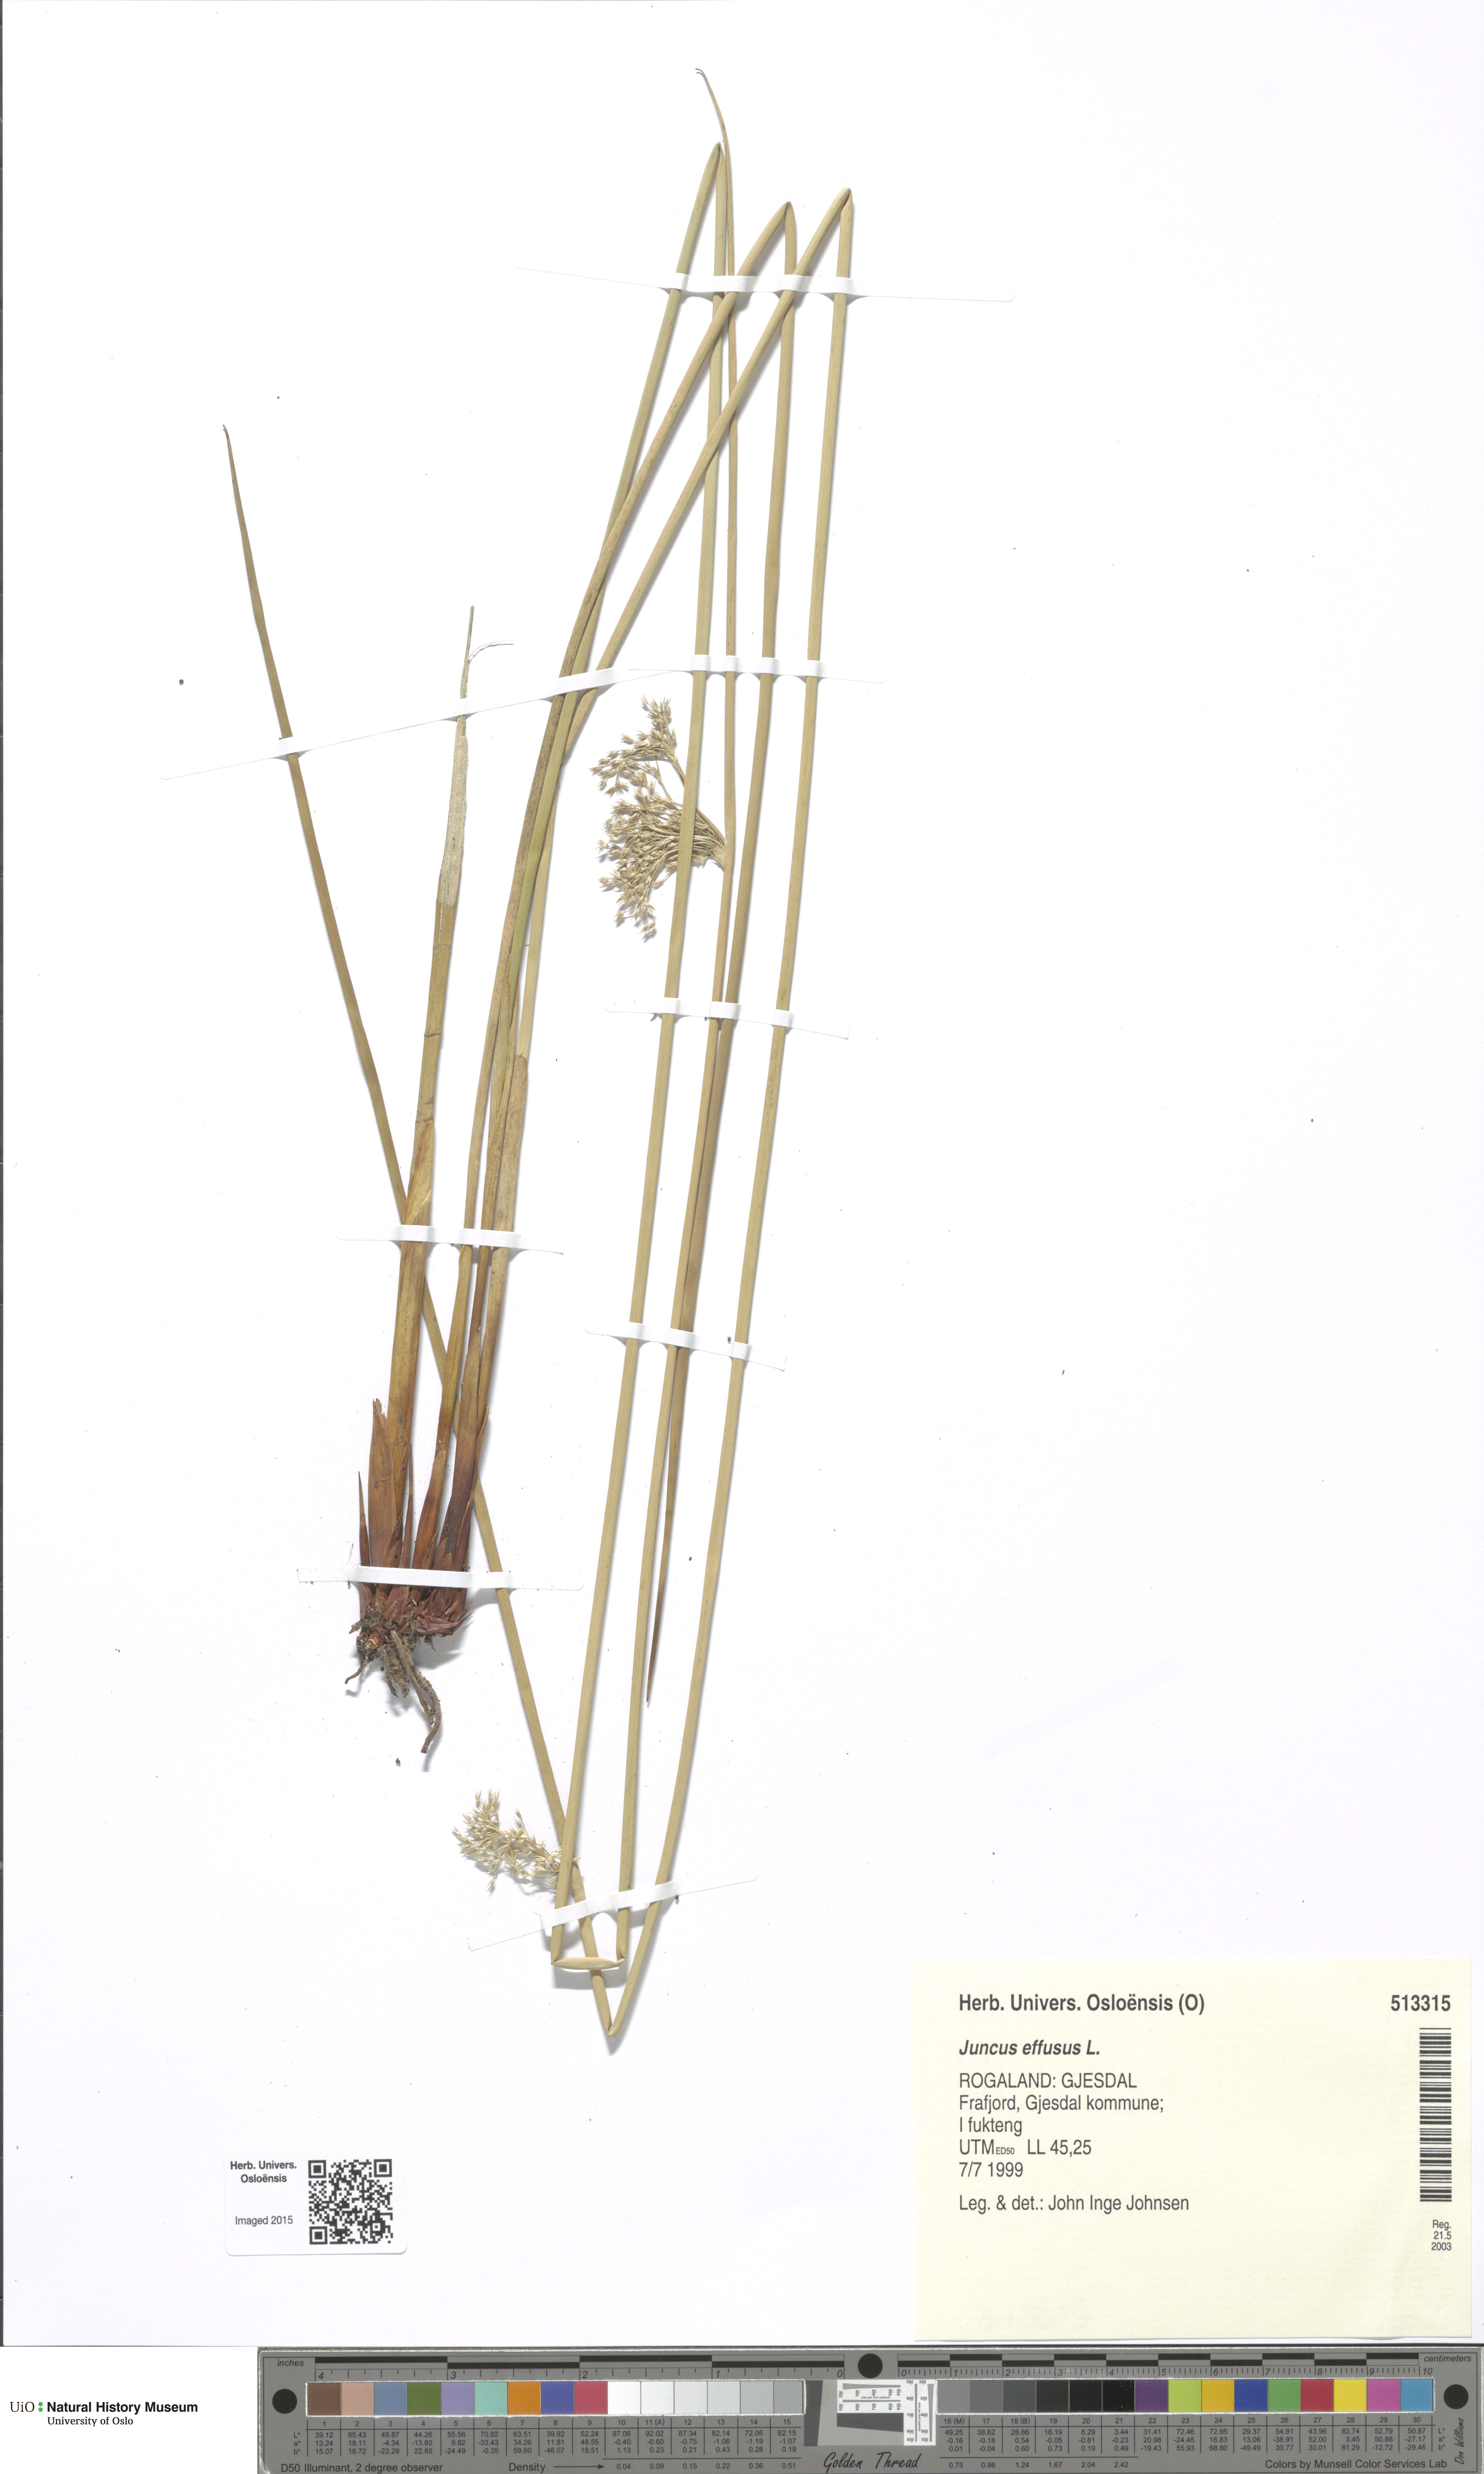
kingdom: Plantae
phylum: Tracheophyta
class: Liliopsida
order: Poales
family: Juncaceae
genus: Juncus
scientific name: Juncus effusus
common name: Soft rush
